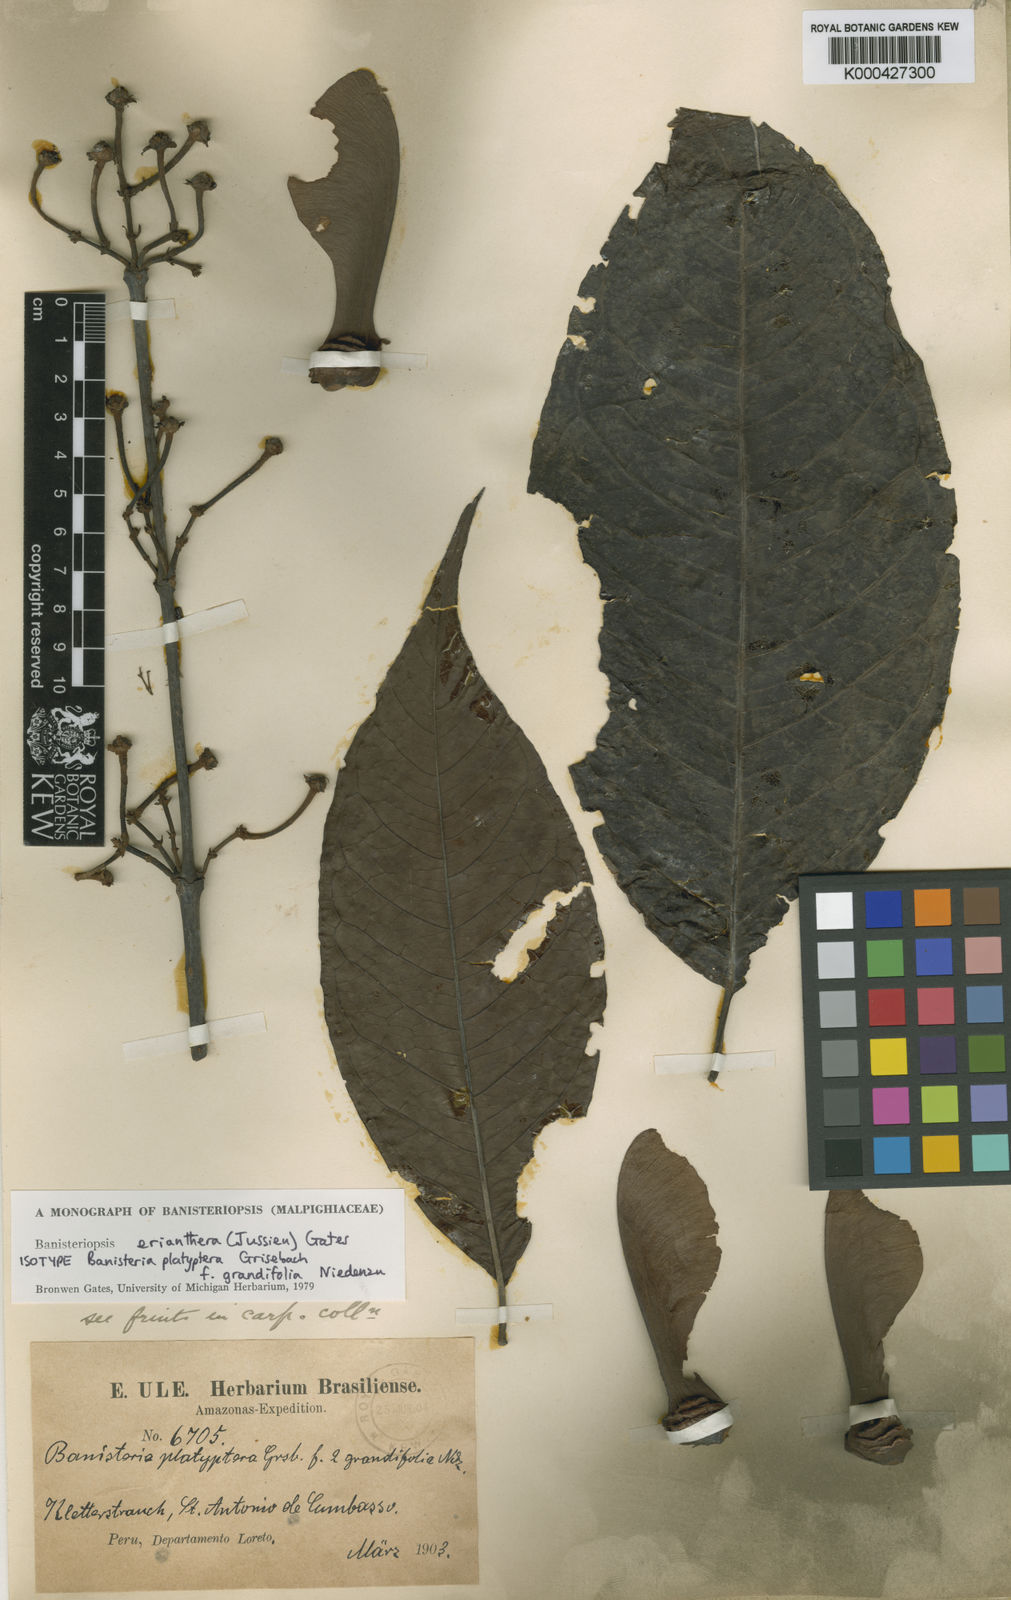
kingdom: Plantae
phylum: Tracheophyta
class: Magnoliopsida
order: Malpighiales
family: Malpighiaceae
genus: Diplopterys
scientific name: Diplopterys erianthera
